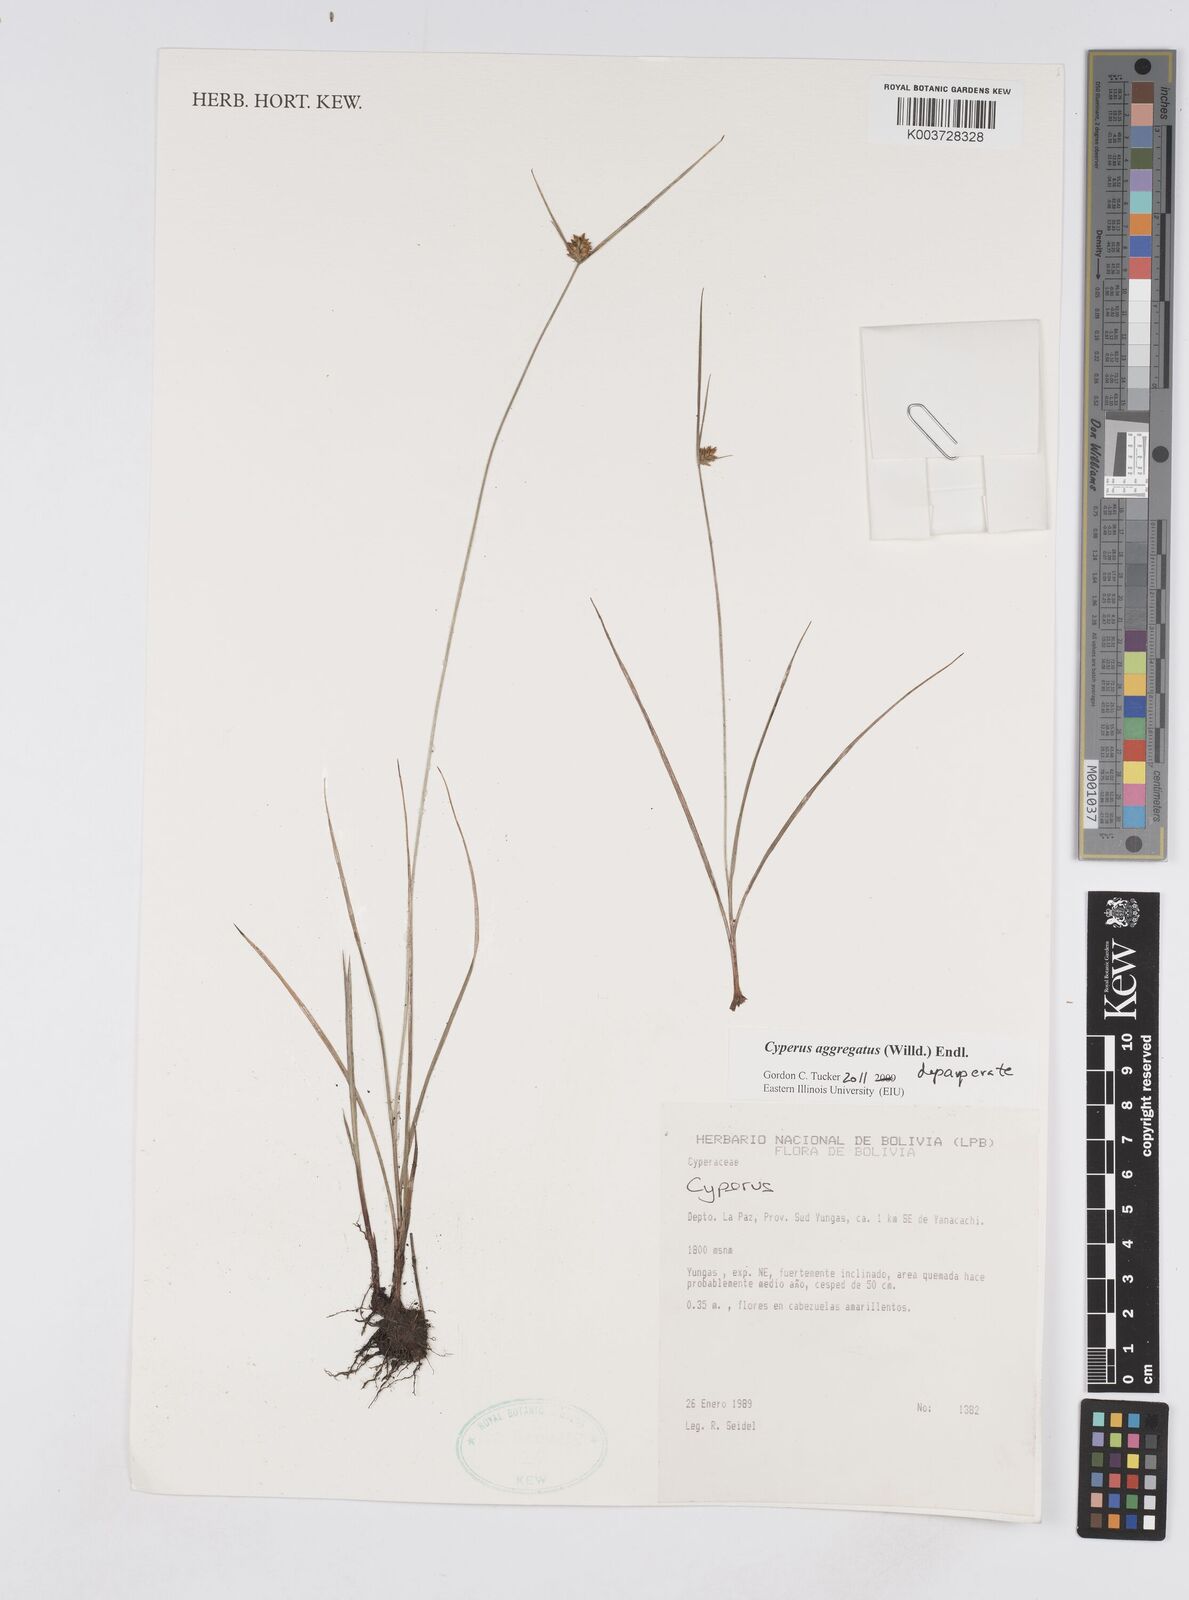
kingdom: Plantae
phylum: Tracheophyta
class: Liliopsida
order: Poales
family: Cyperaceae
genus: Cyperus
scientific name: Cyperus aggregatus
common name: Inflatedscale flatsedge
